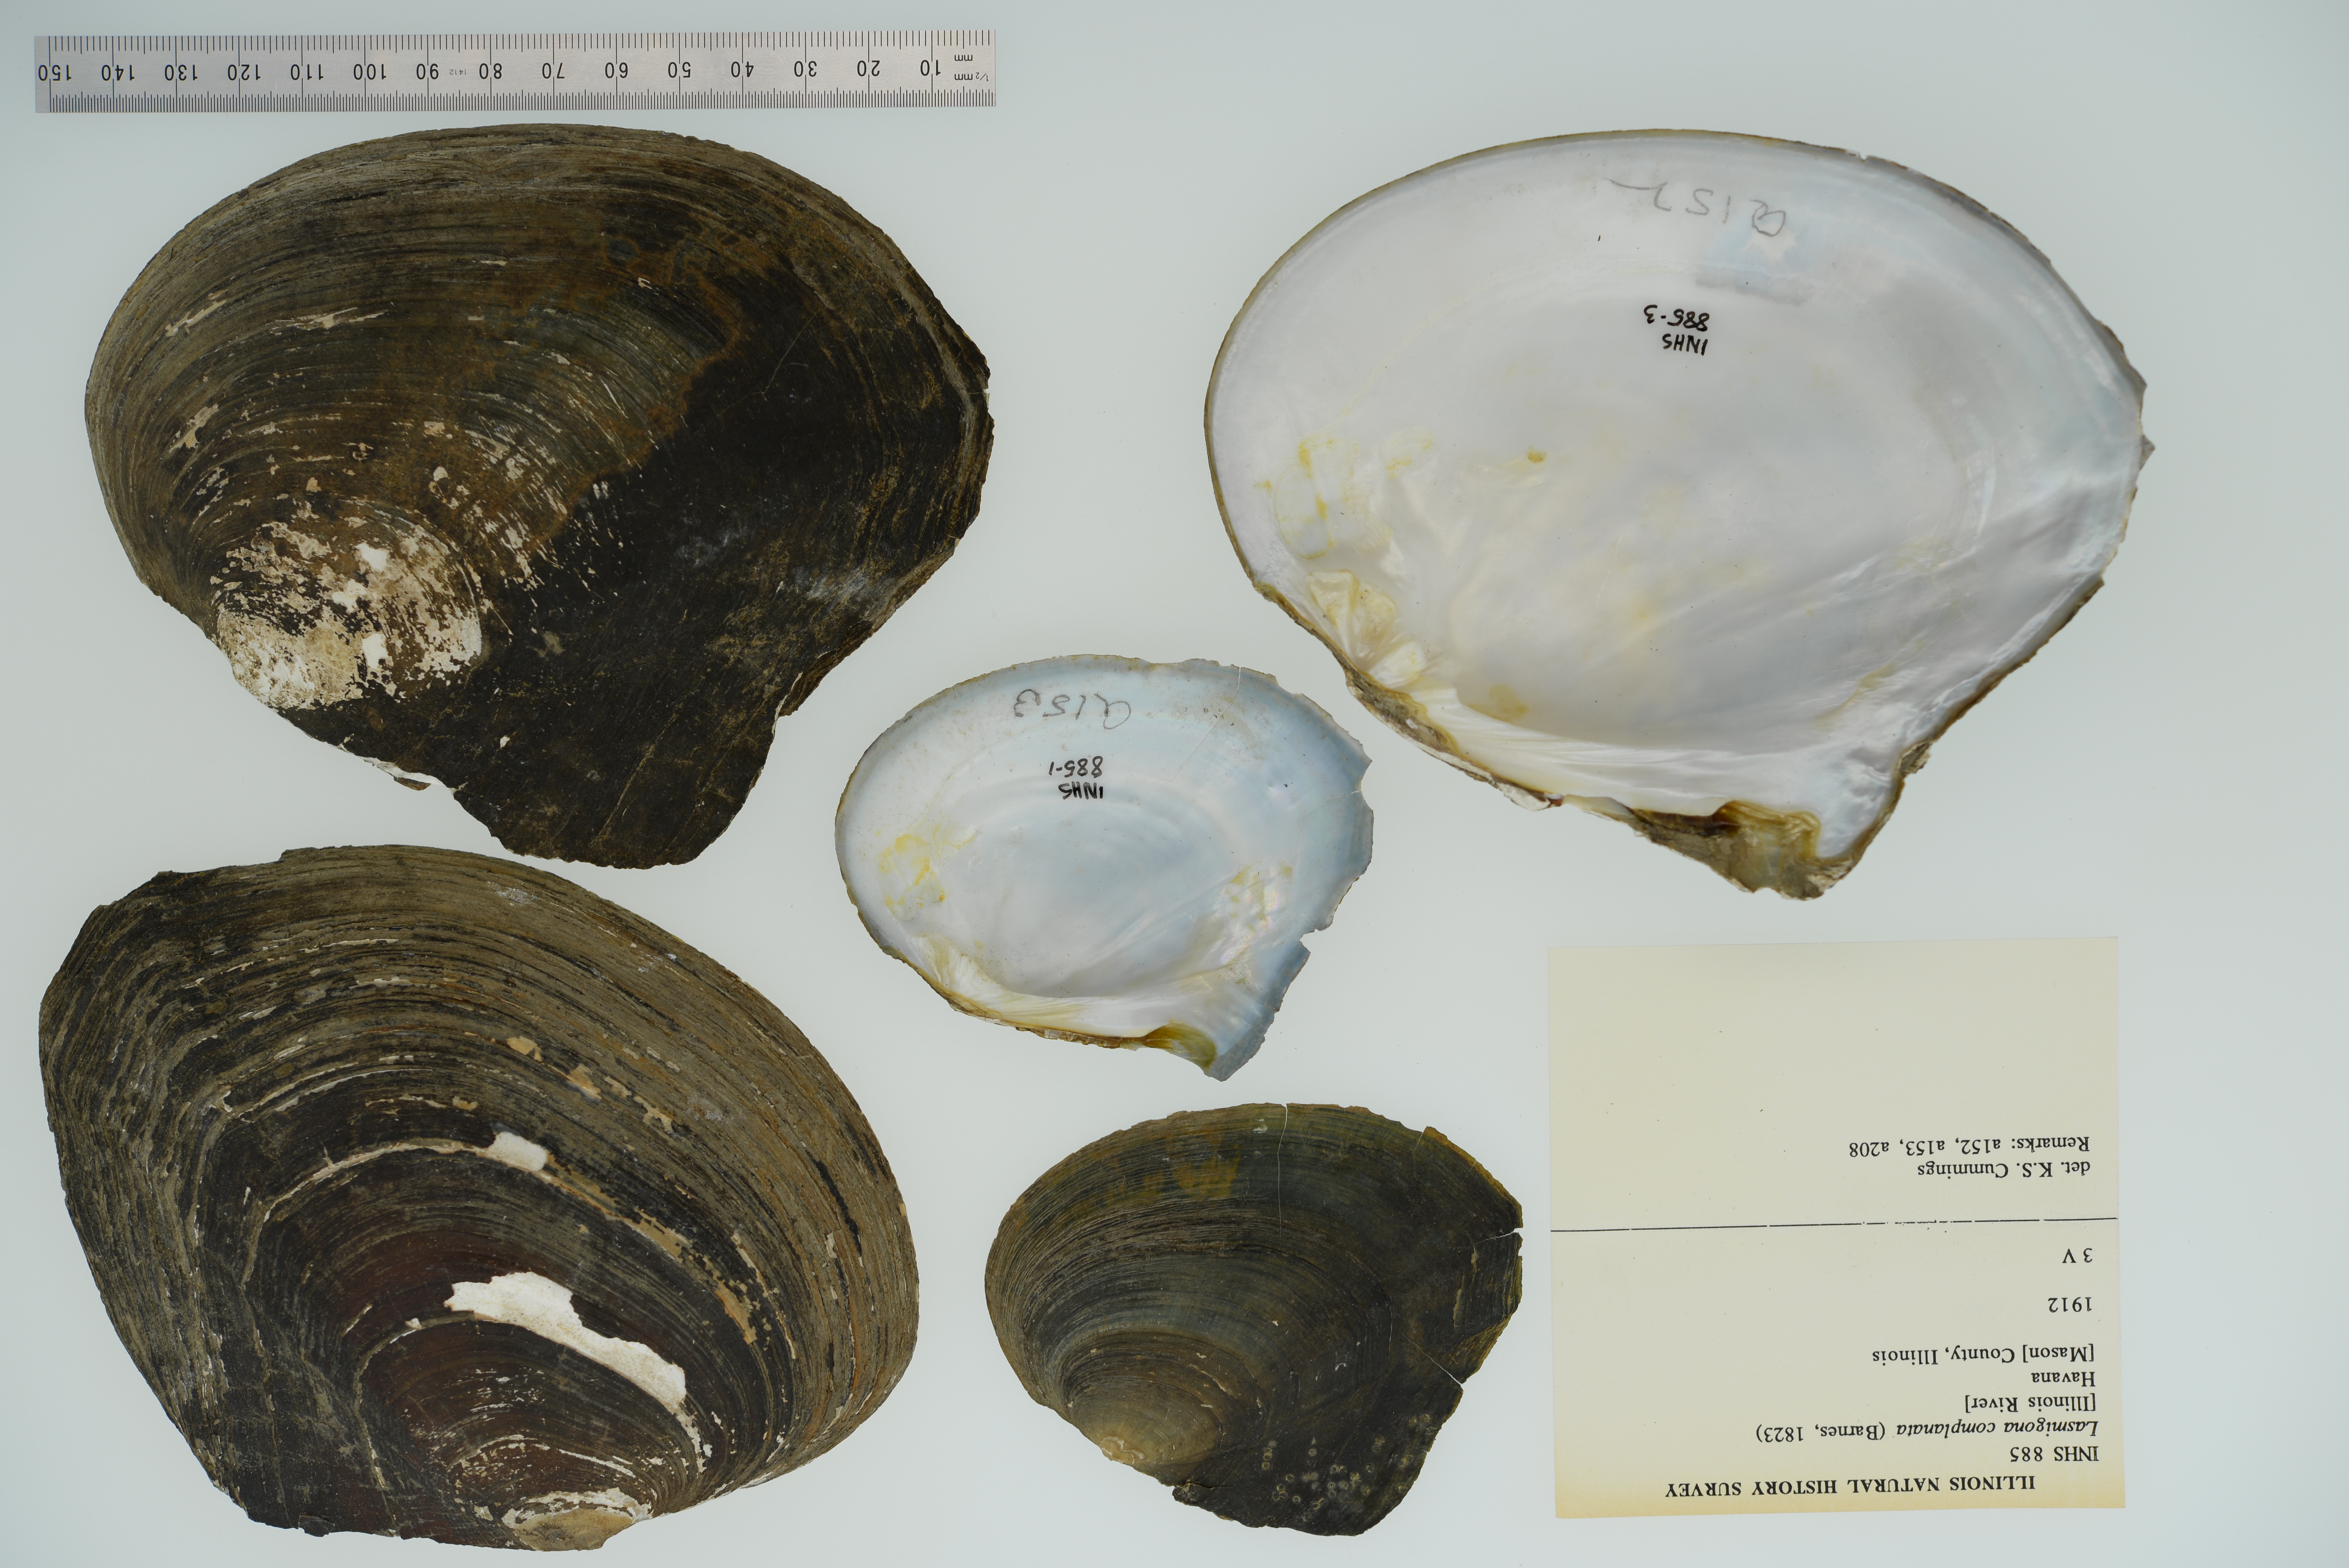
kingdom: Animalia
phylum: Mollusca
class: Bivalvia
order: Unionida
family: Unionidae
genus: Lasmigona
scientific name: Lasmigona complanata
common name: White heelsplitter
